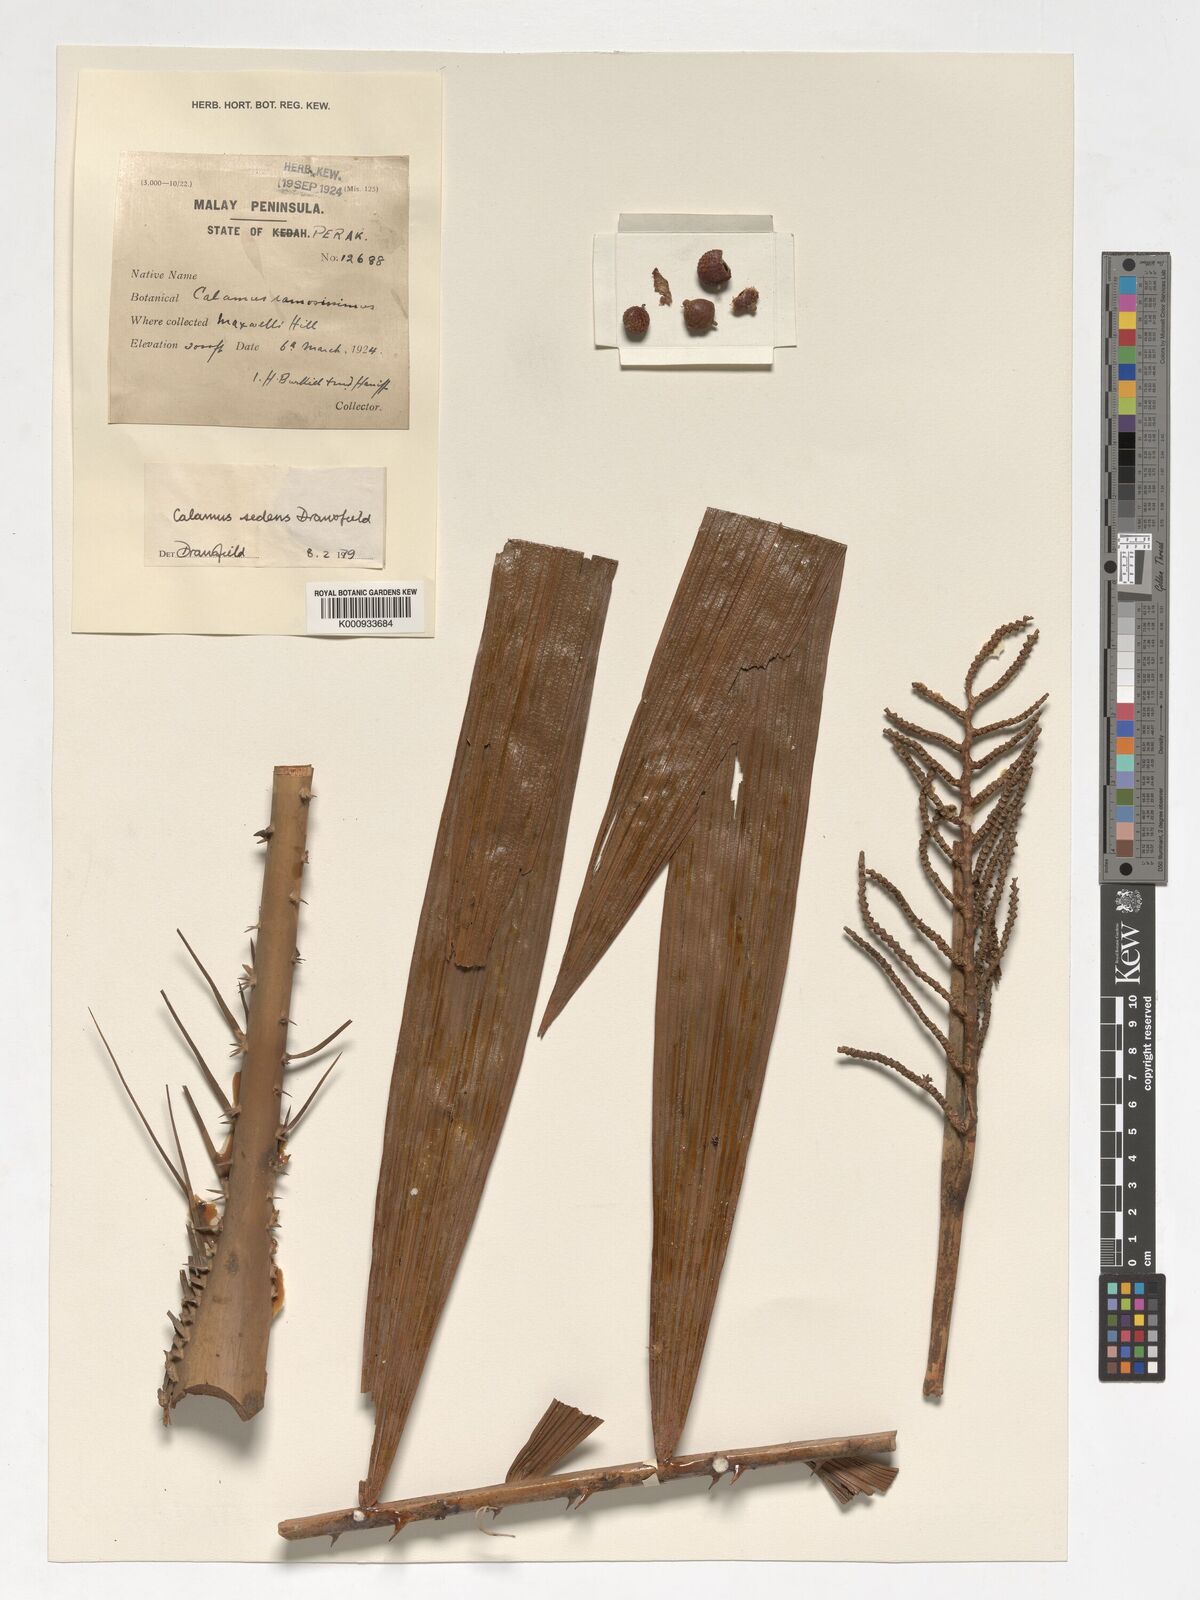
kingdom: Plantae
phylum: Tracheophyta
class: Liliopsida
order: Arecales
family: Arecaceae
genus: Calamus
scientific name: Calamus oxleyanus
